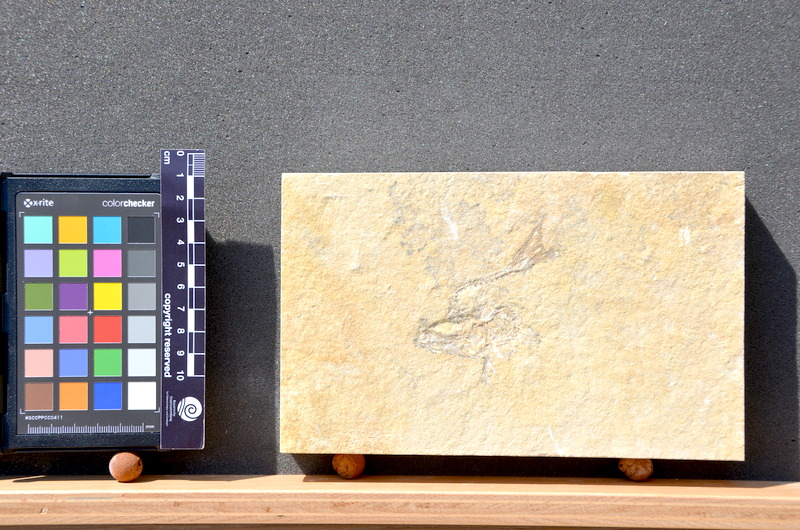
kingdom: Animalia
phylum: Chordata
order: Elopiformes
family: Anaethalionidae
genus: Anaethalion
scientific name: Anaethalion knorri
